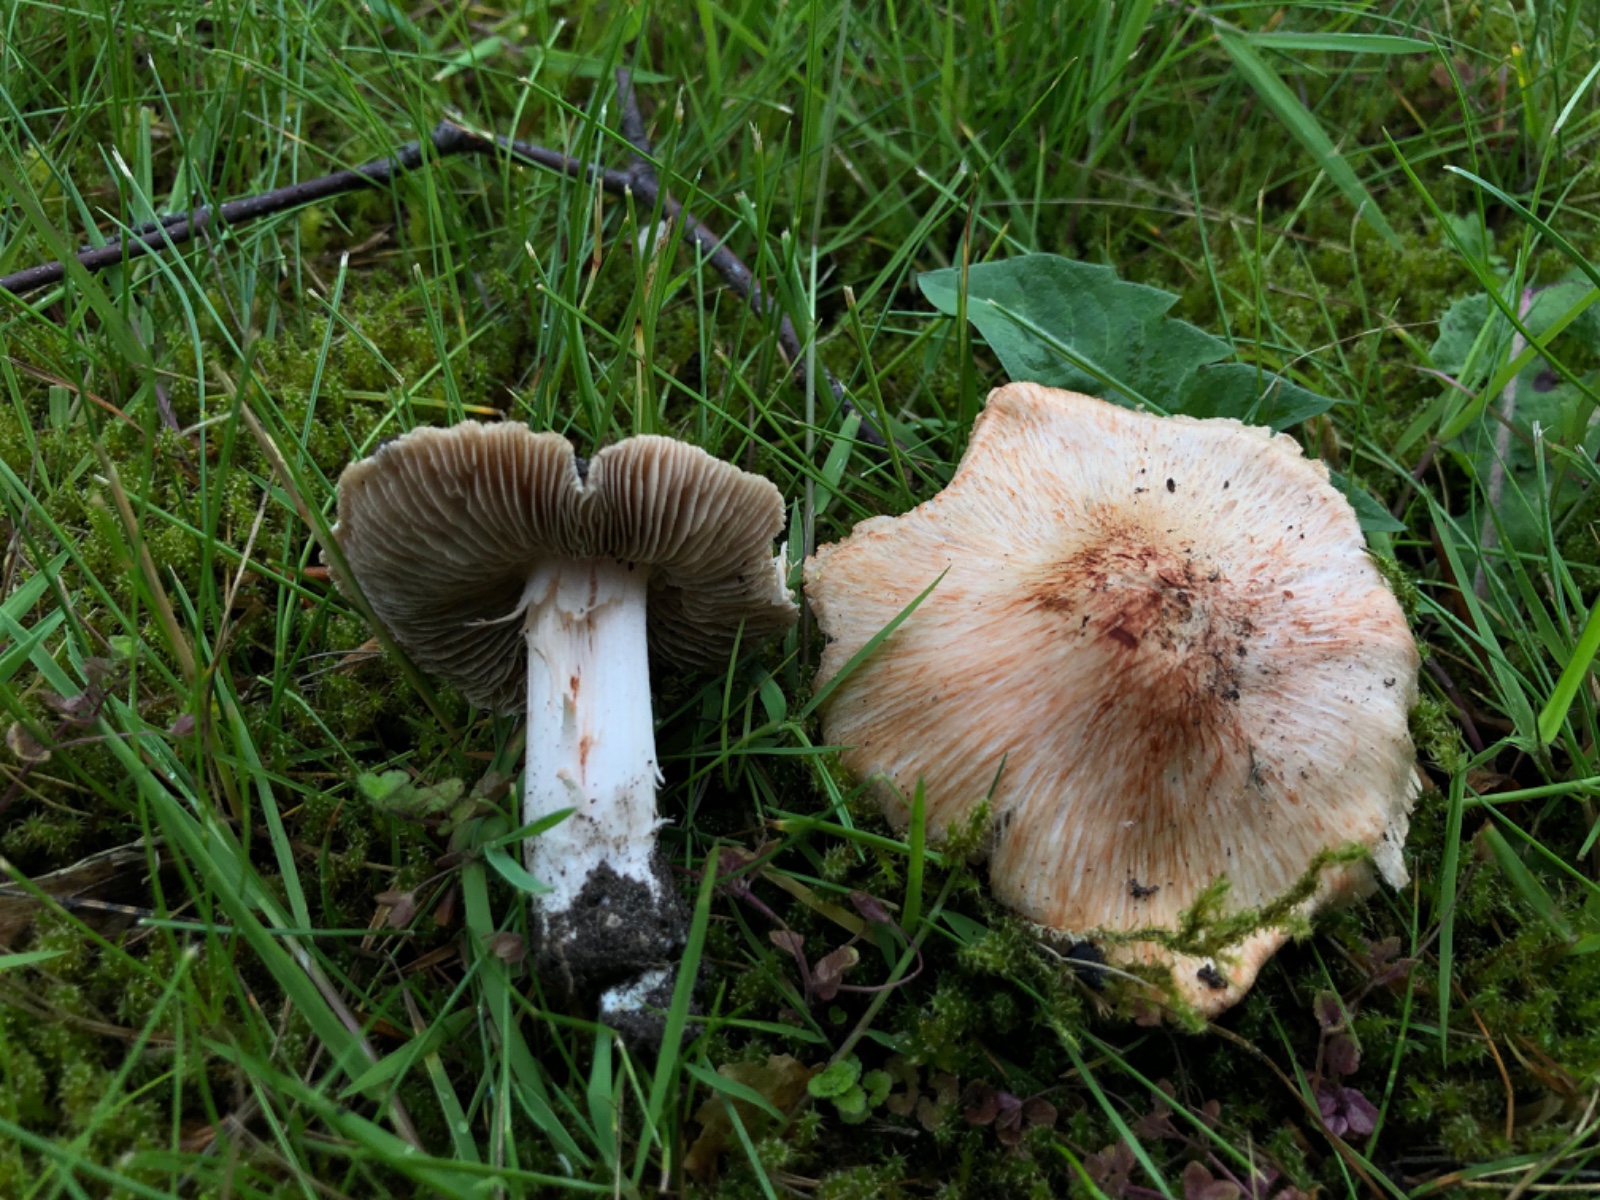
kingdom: Fungi
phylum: Basidiomycota
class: Agaricomycetes
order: Agaricales
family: Inocybaceae
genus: Inosperma
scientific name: Inosperma erubescens
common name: giftig trævlhat
